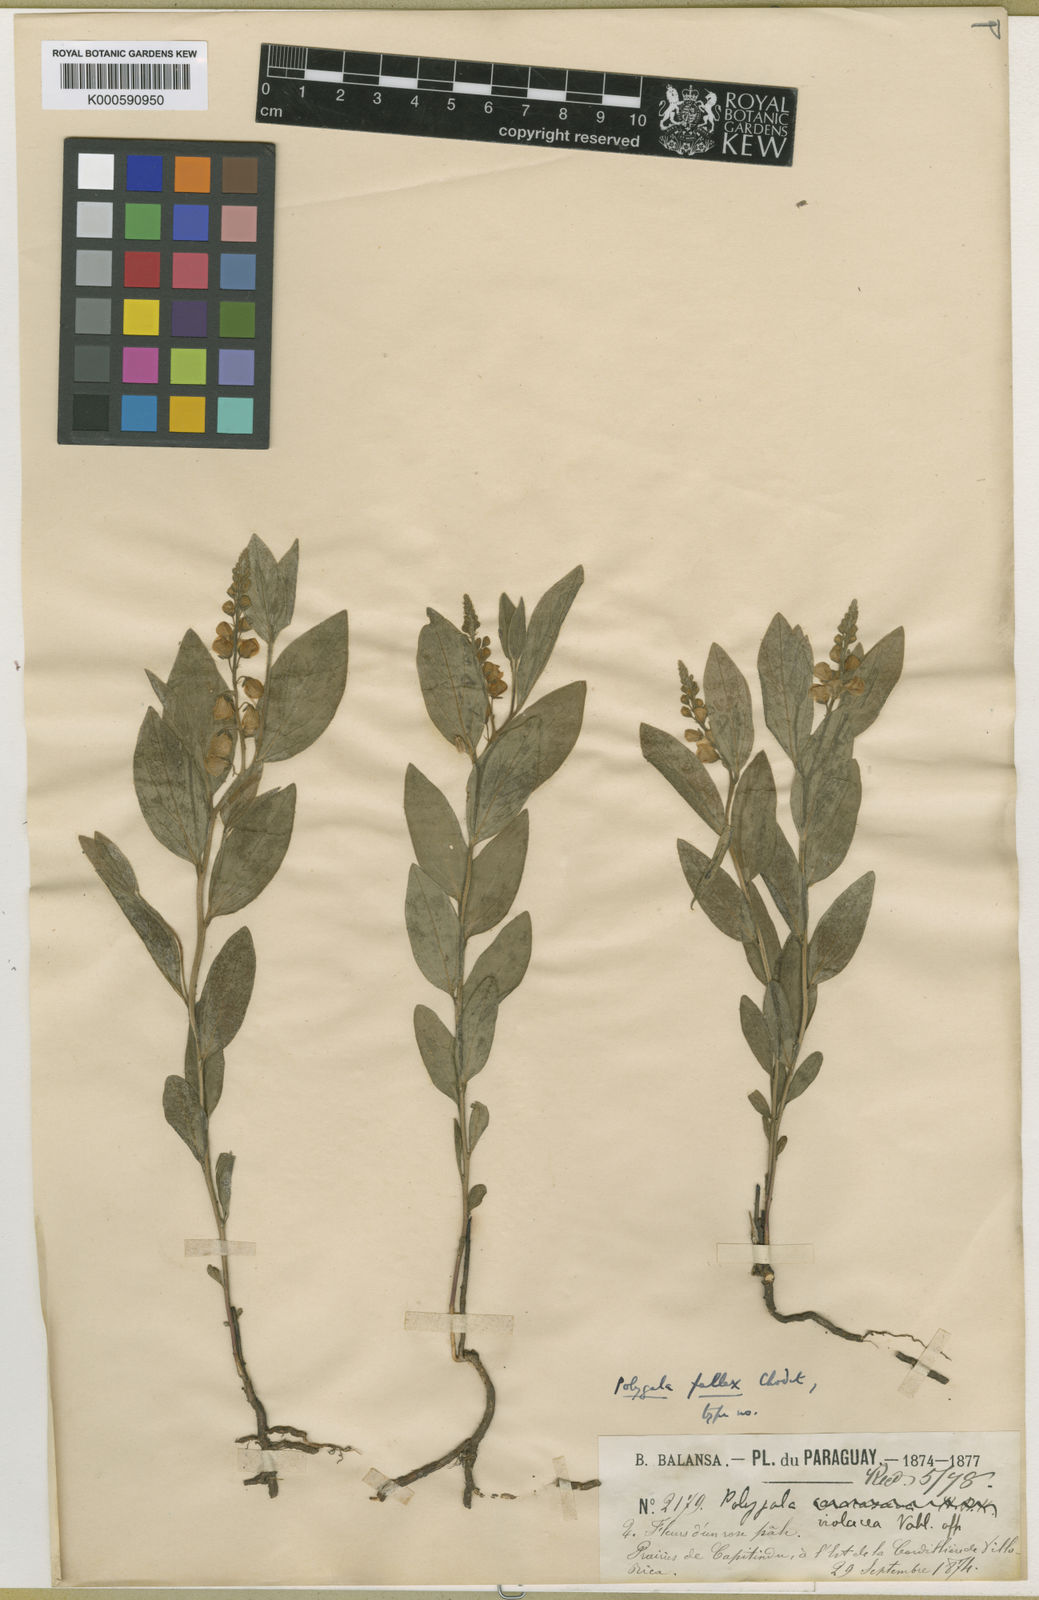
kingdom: Plantae
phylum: Tracheophyta
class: Magnoliopsida
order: Fabales
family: Polygalaceae
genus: Asemeia
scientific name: Asemeia extraaxillaris
